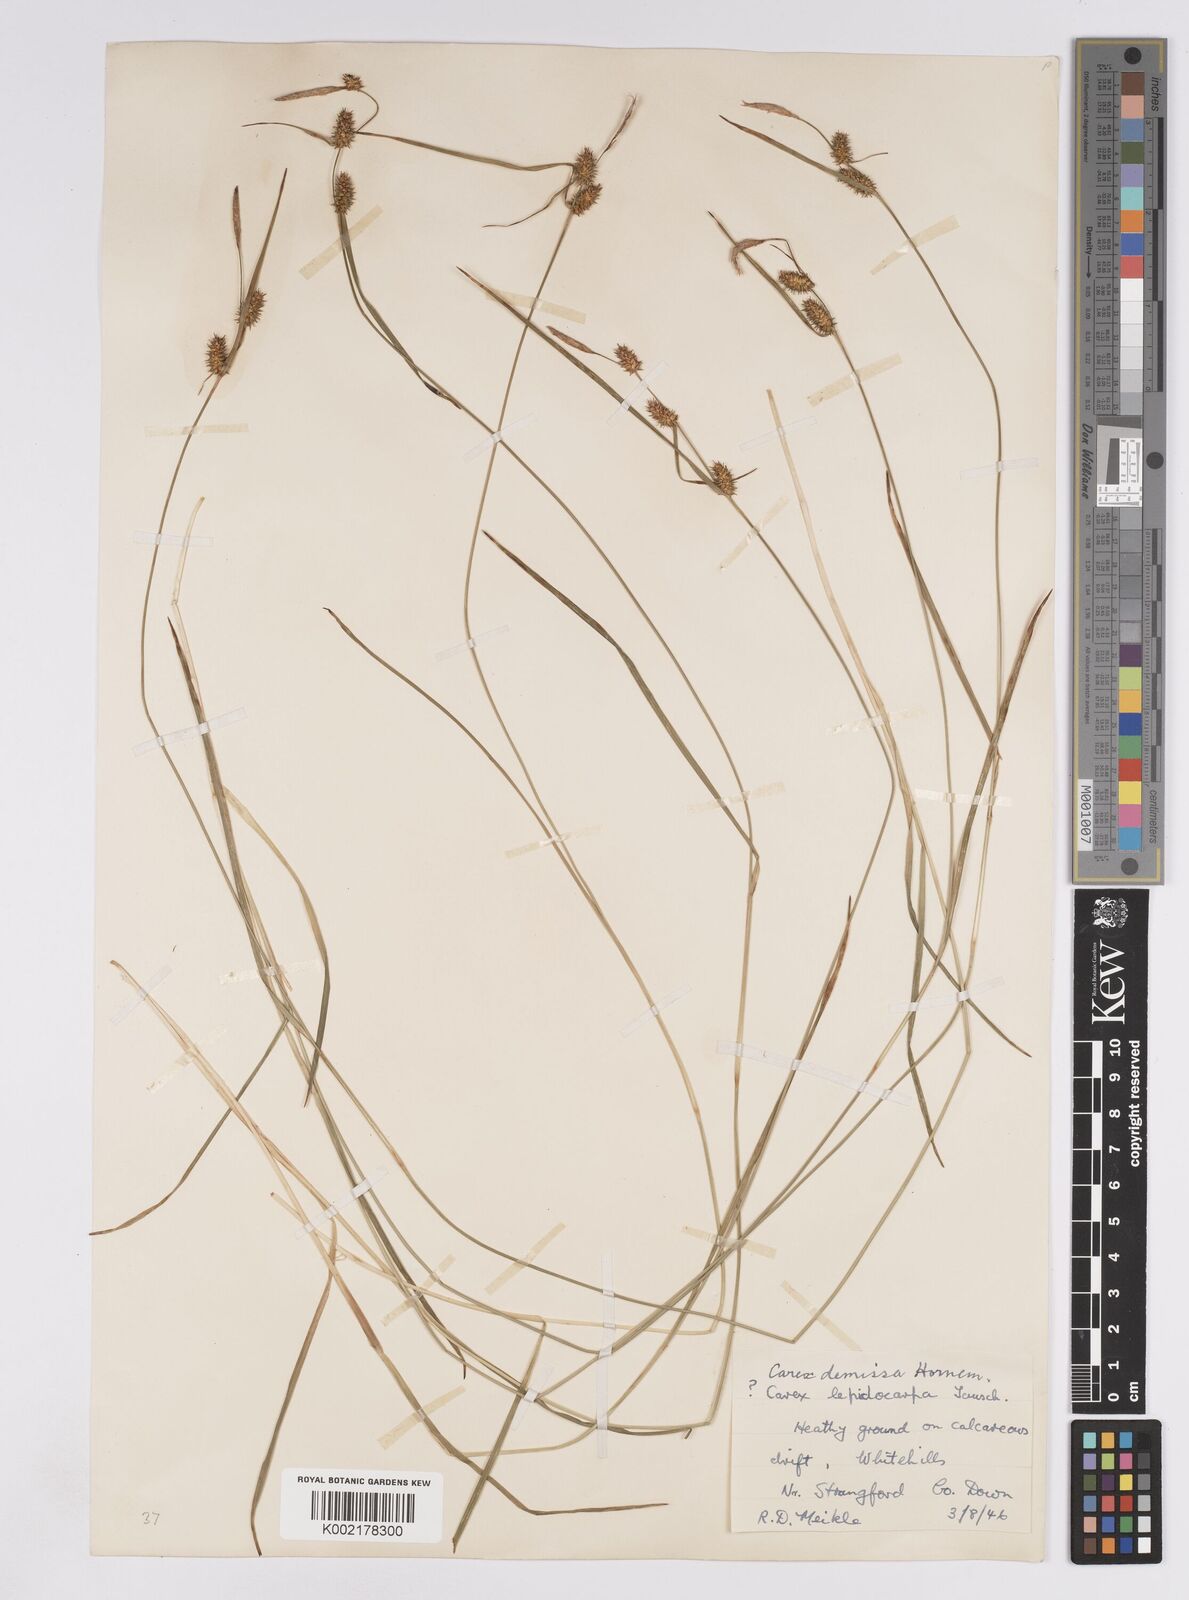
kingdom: Plantae
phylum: Tracheophyta
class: Liliopsida
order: Poales
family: Cyperaceae
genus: Carex
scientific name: Carex demissa
